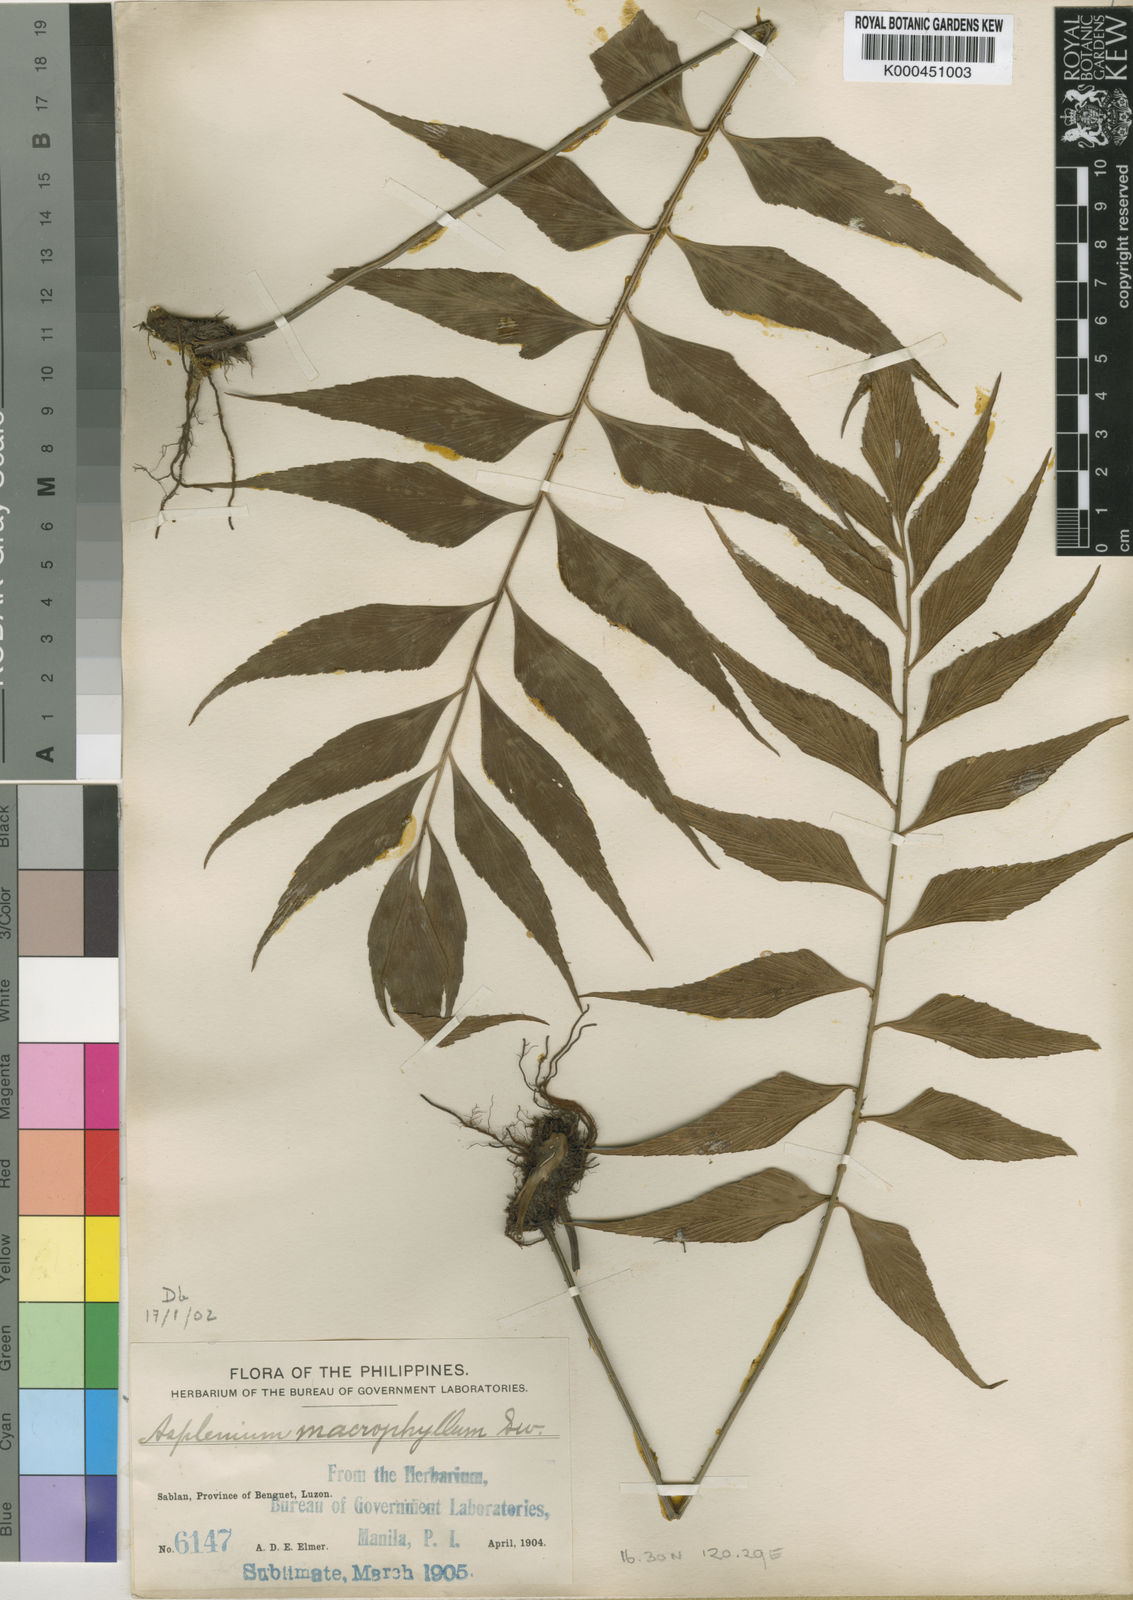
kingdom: Plantae
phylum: Tracheophyta
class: Polypodiopsida
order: Polypodiales
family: Aspleniaceae
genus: Asplenium
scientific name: Asplenium macrophyllum
